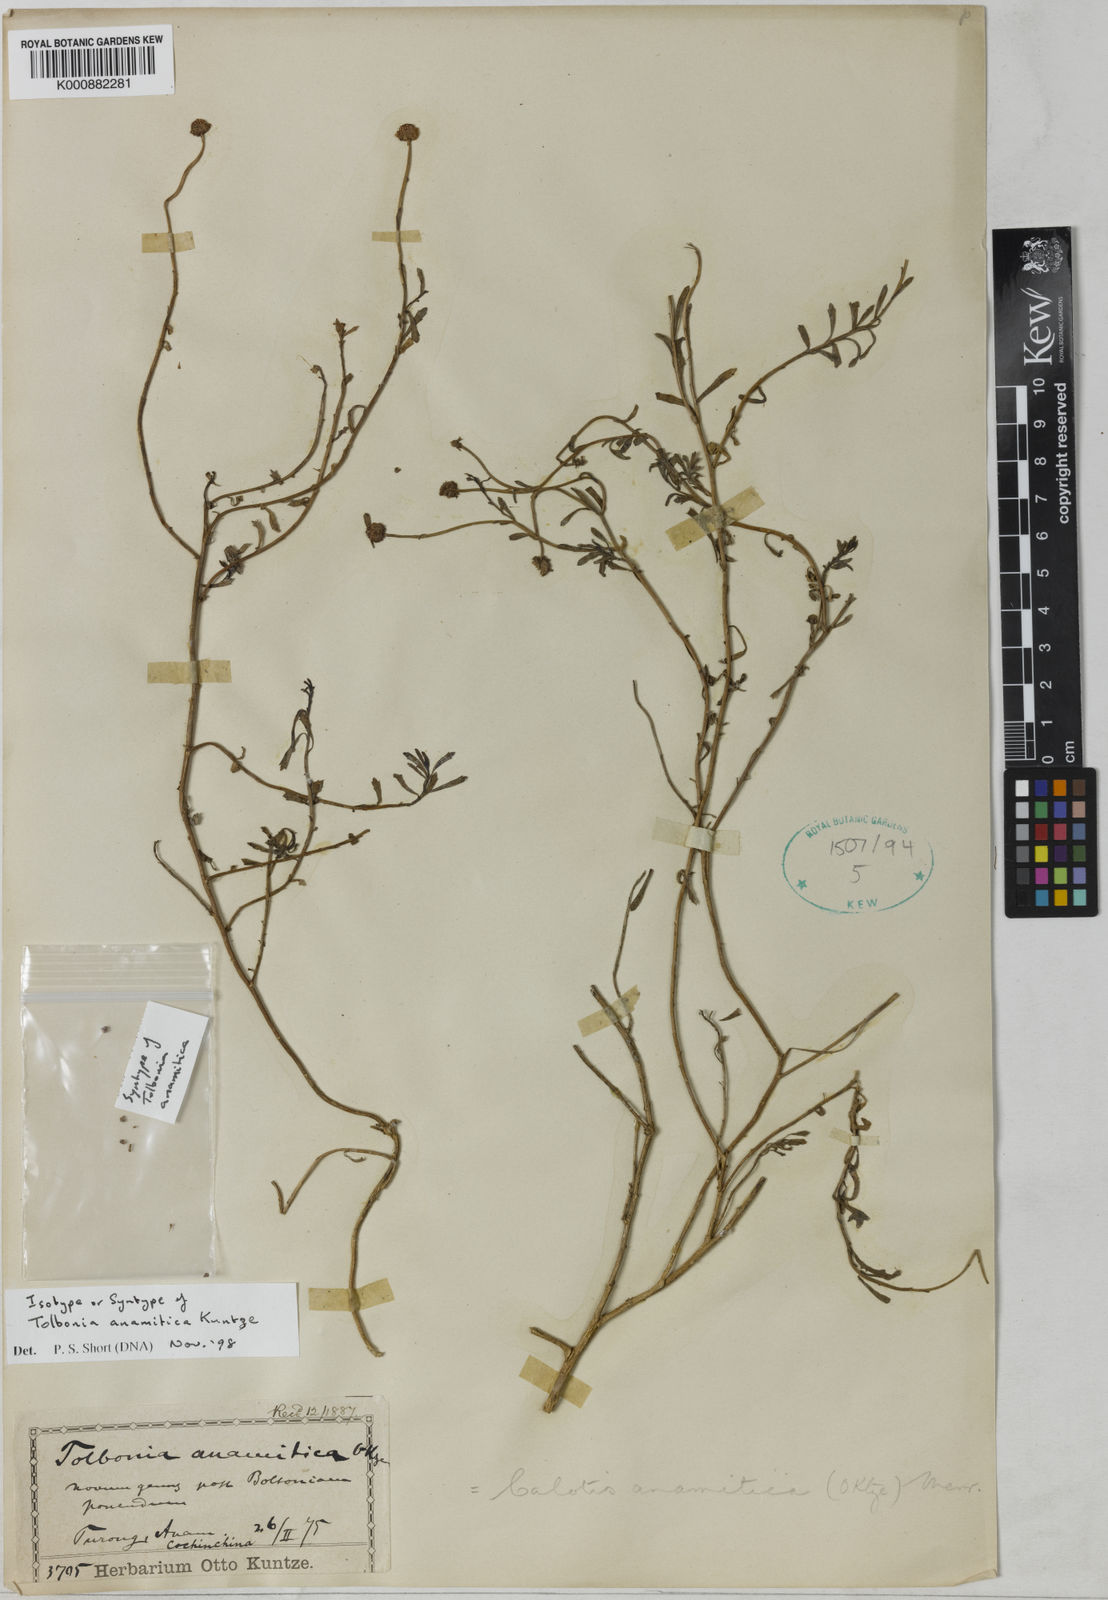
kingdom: Plantae
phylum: Tracheophyta
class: Magnoliopsida
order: Asterales
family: Asteraceae
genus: Calotis
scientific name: Calotis anamitica
